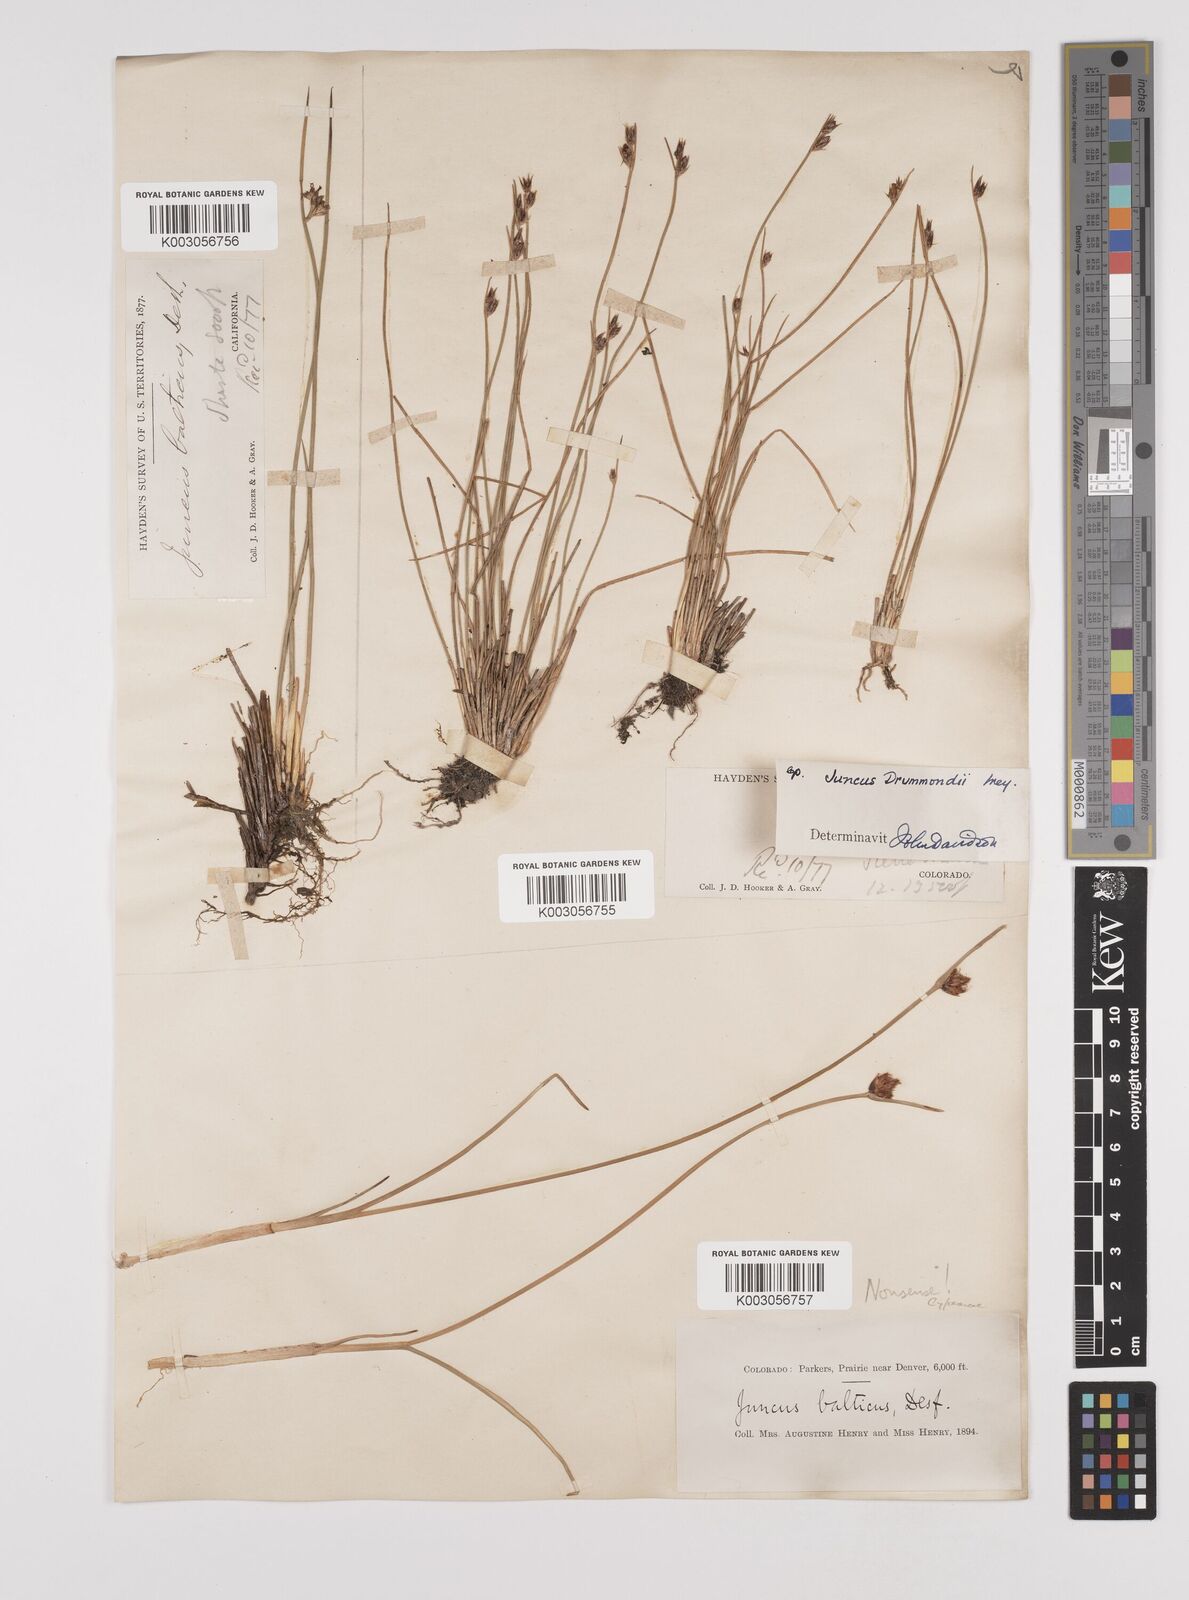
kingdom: Plantae
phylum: Tracheophyta
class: Liliopsida
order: Poales
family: Juncaceae
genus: Juncus
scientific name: Juncus drummondii
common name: Drummond's rush
